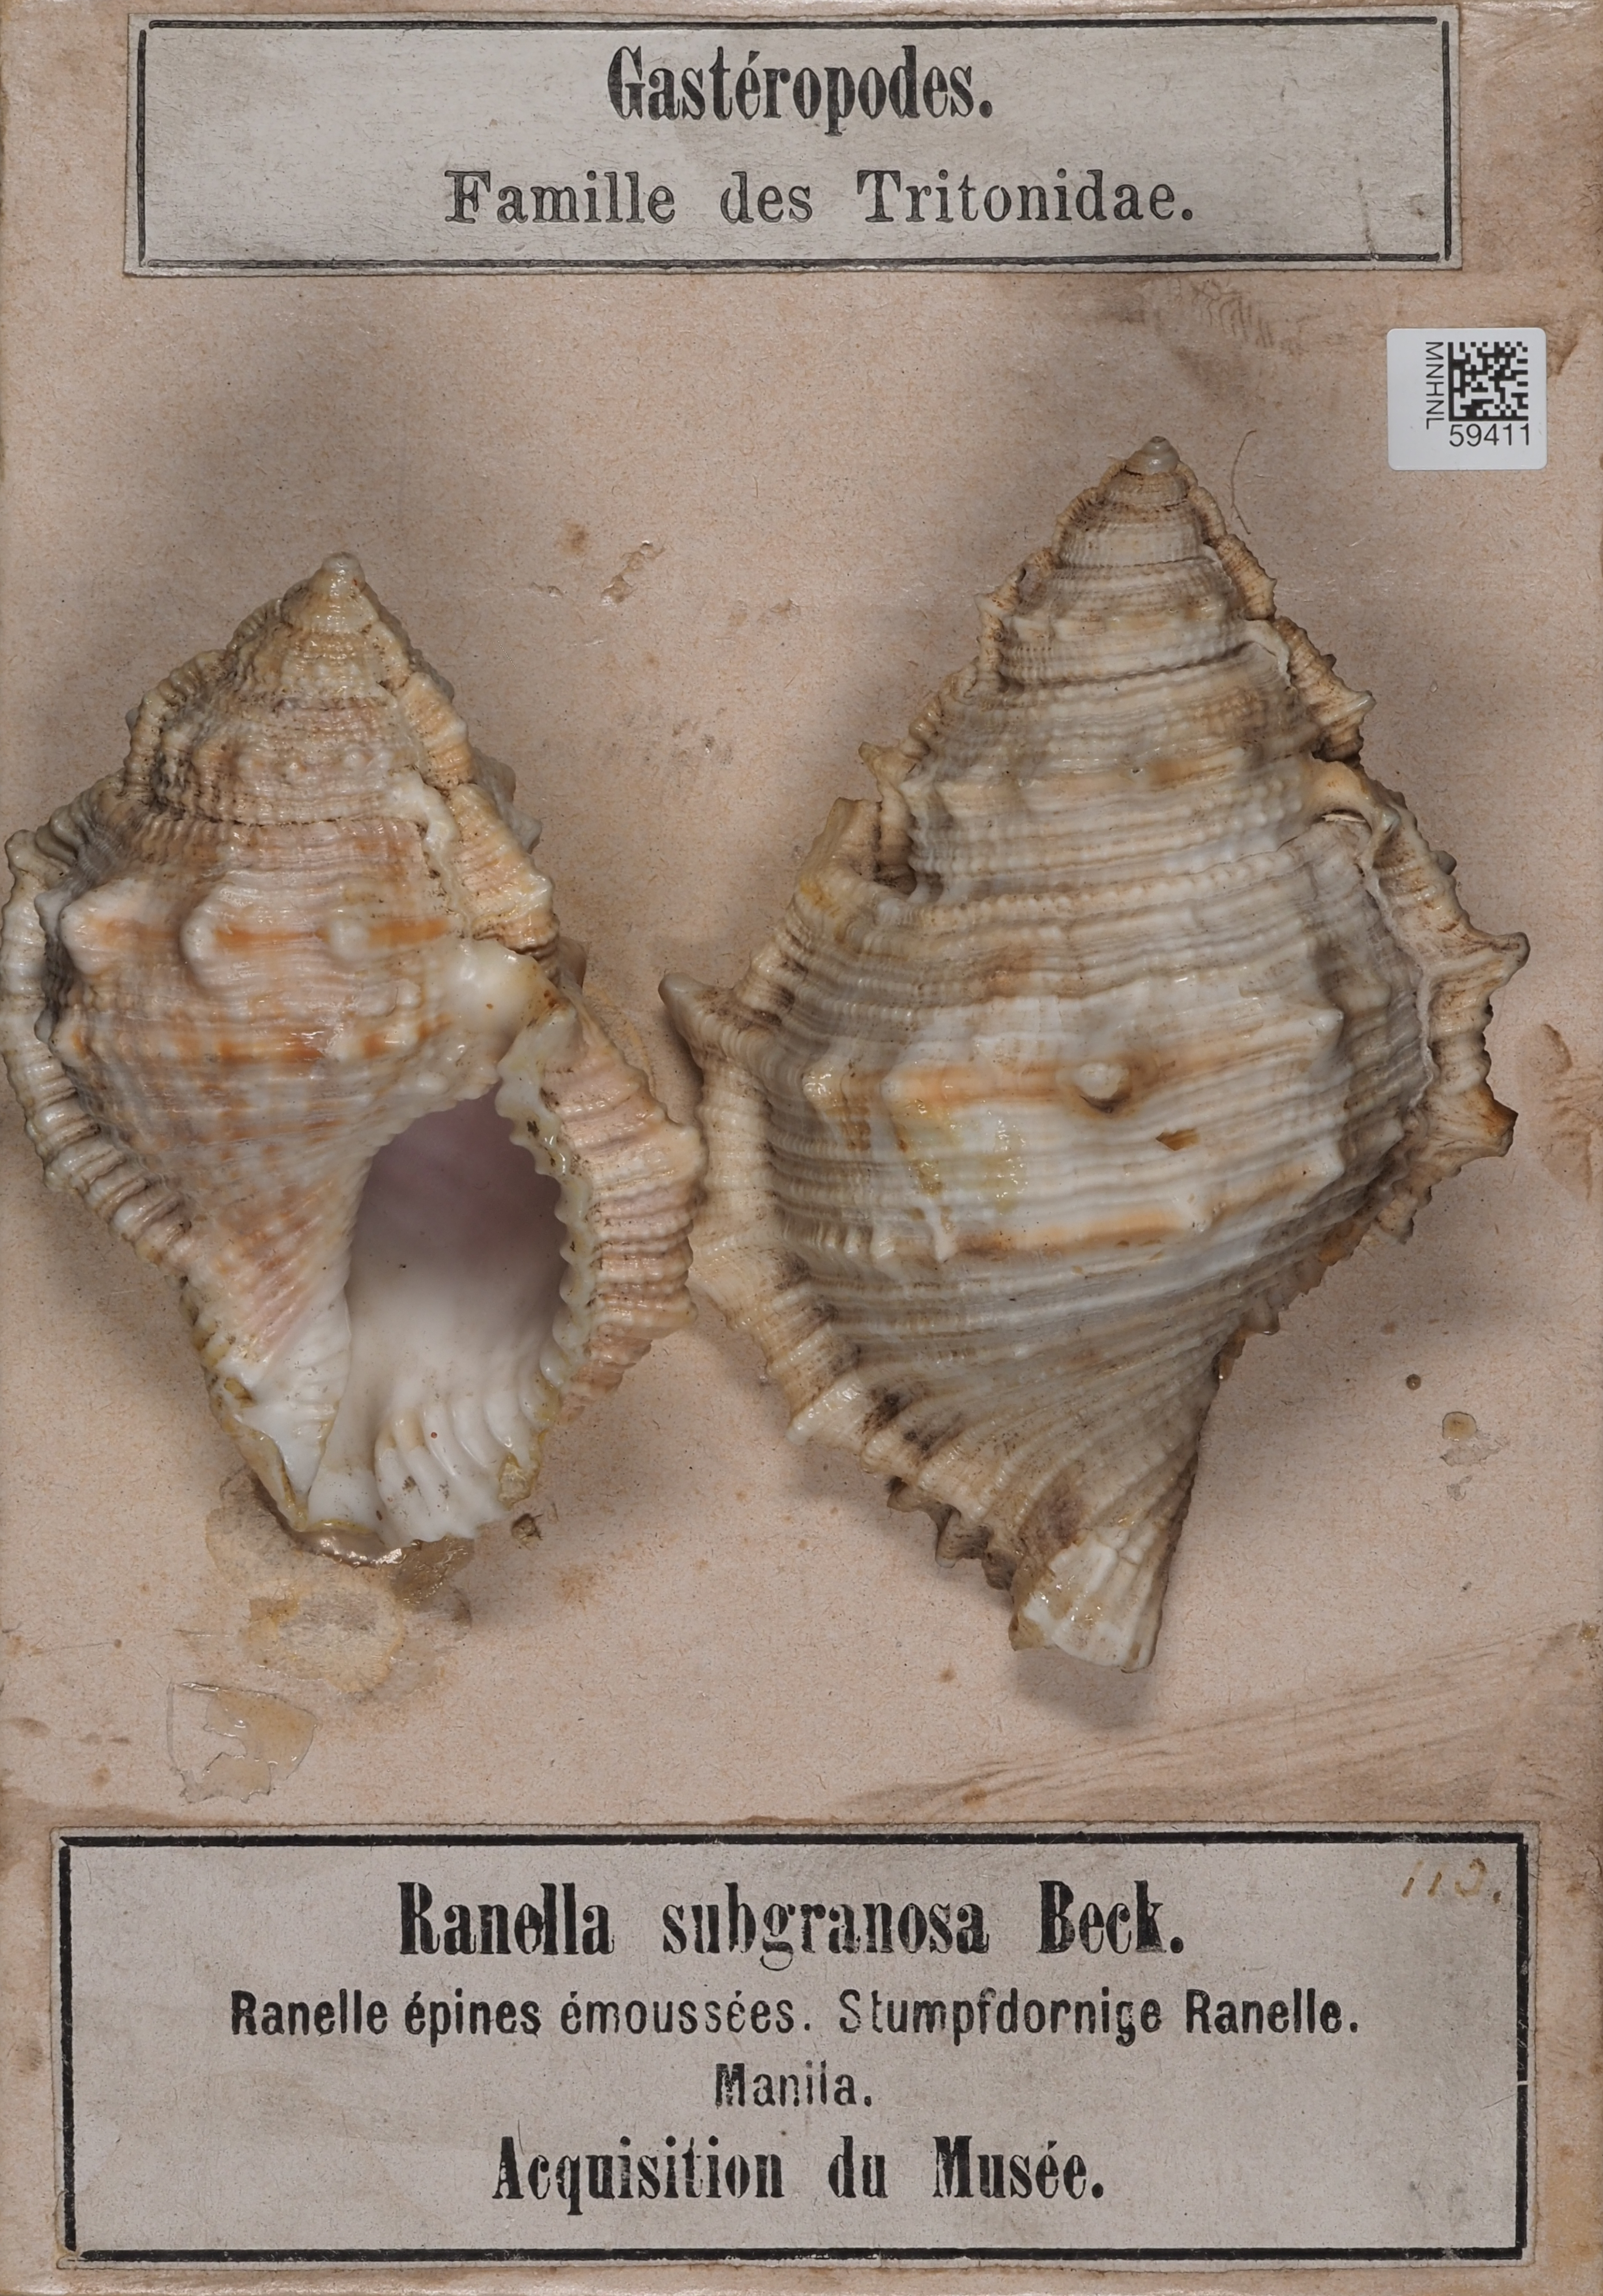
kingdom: Animalia
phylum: Mollusca
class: Gastropoda
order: Littorinimorpha
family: Bursidae
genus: Bufonaria
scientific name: Bufonaria subgranosa
